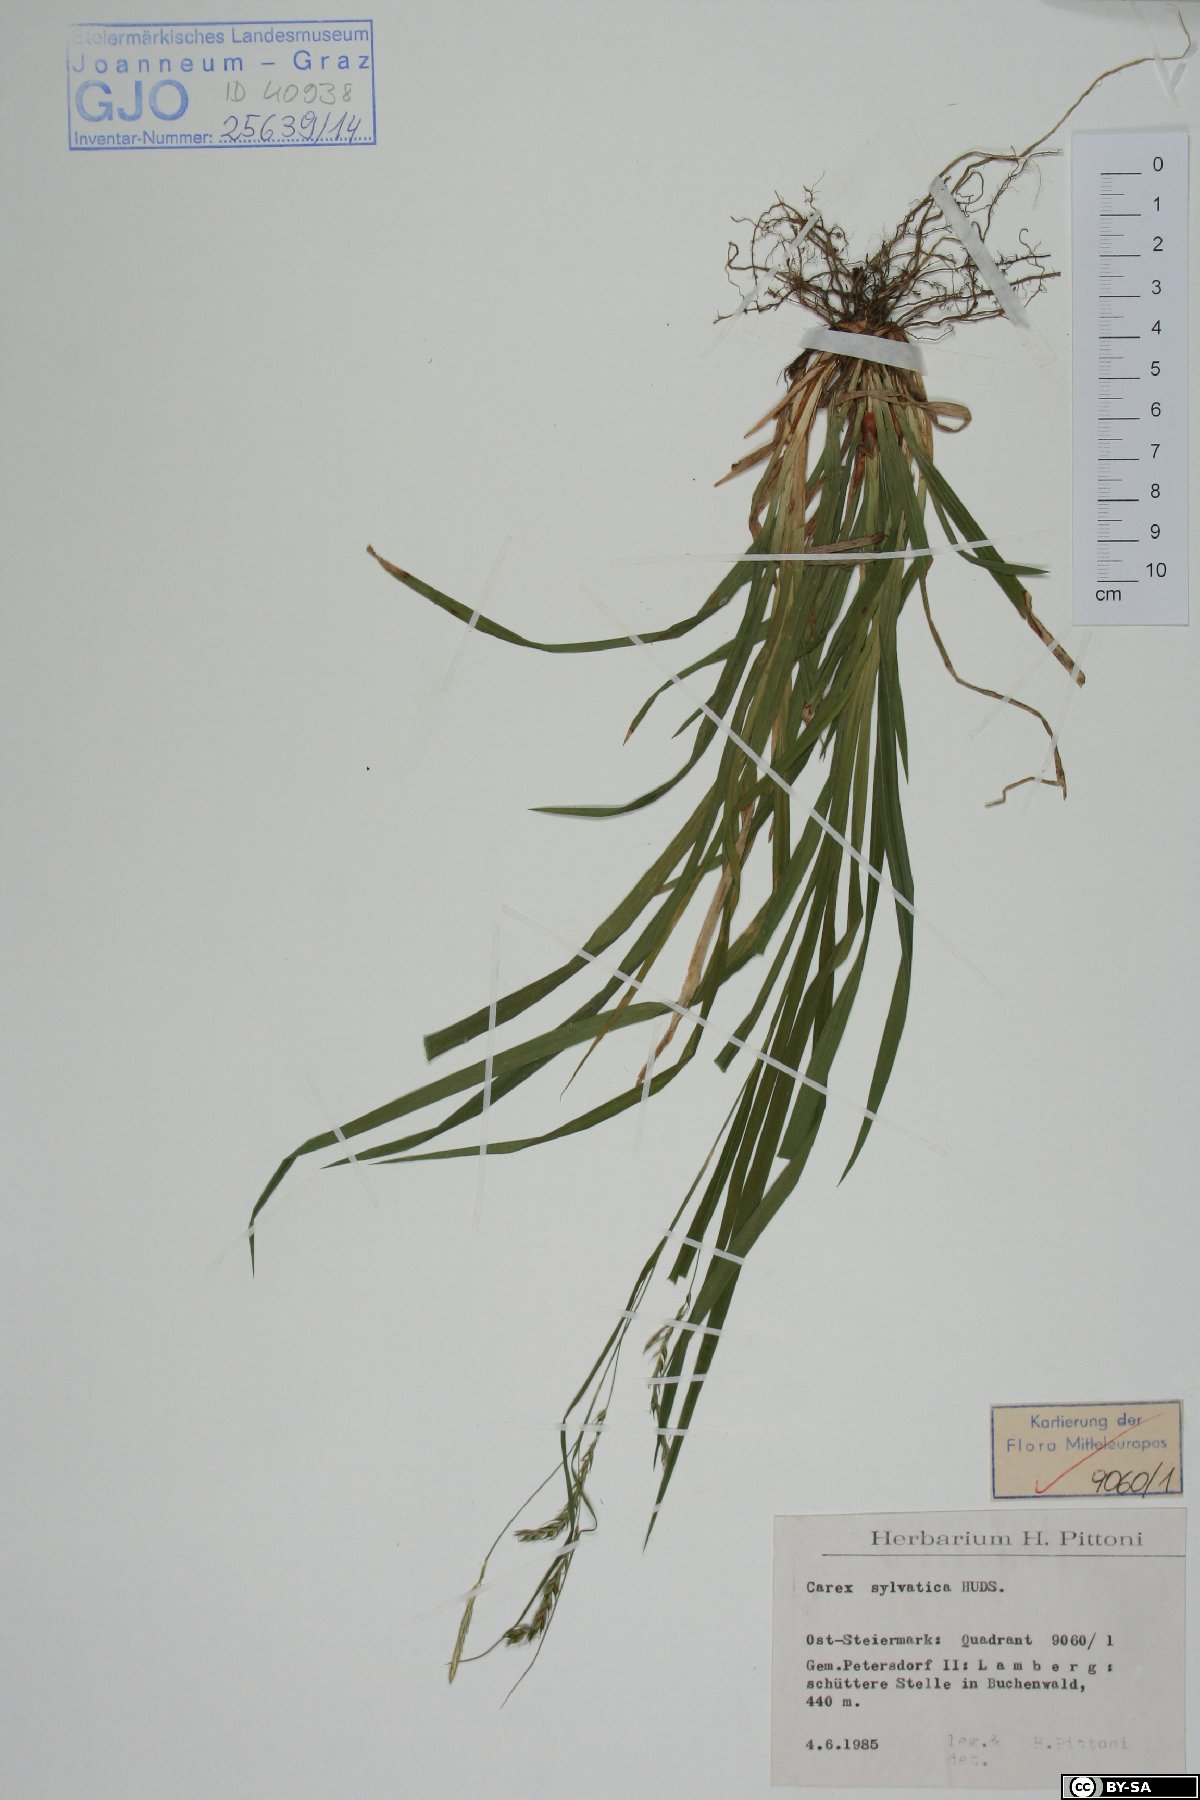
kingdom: Plantae
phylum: Tracheophyta
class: Liliopsida
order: Poales
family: Cyperaceae
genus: Carex
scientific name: Carex sylvatica
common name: Wood-sedge
